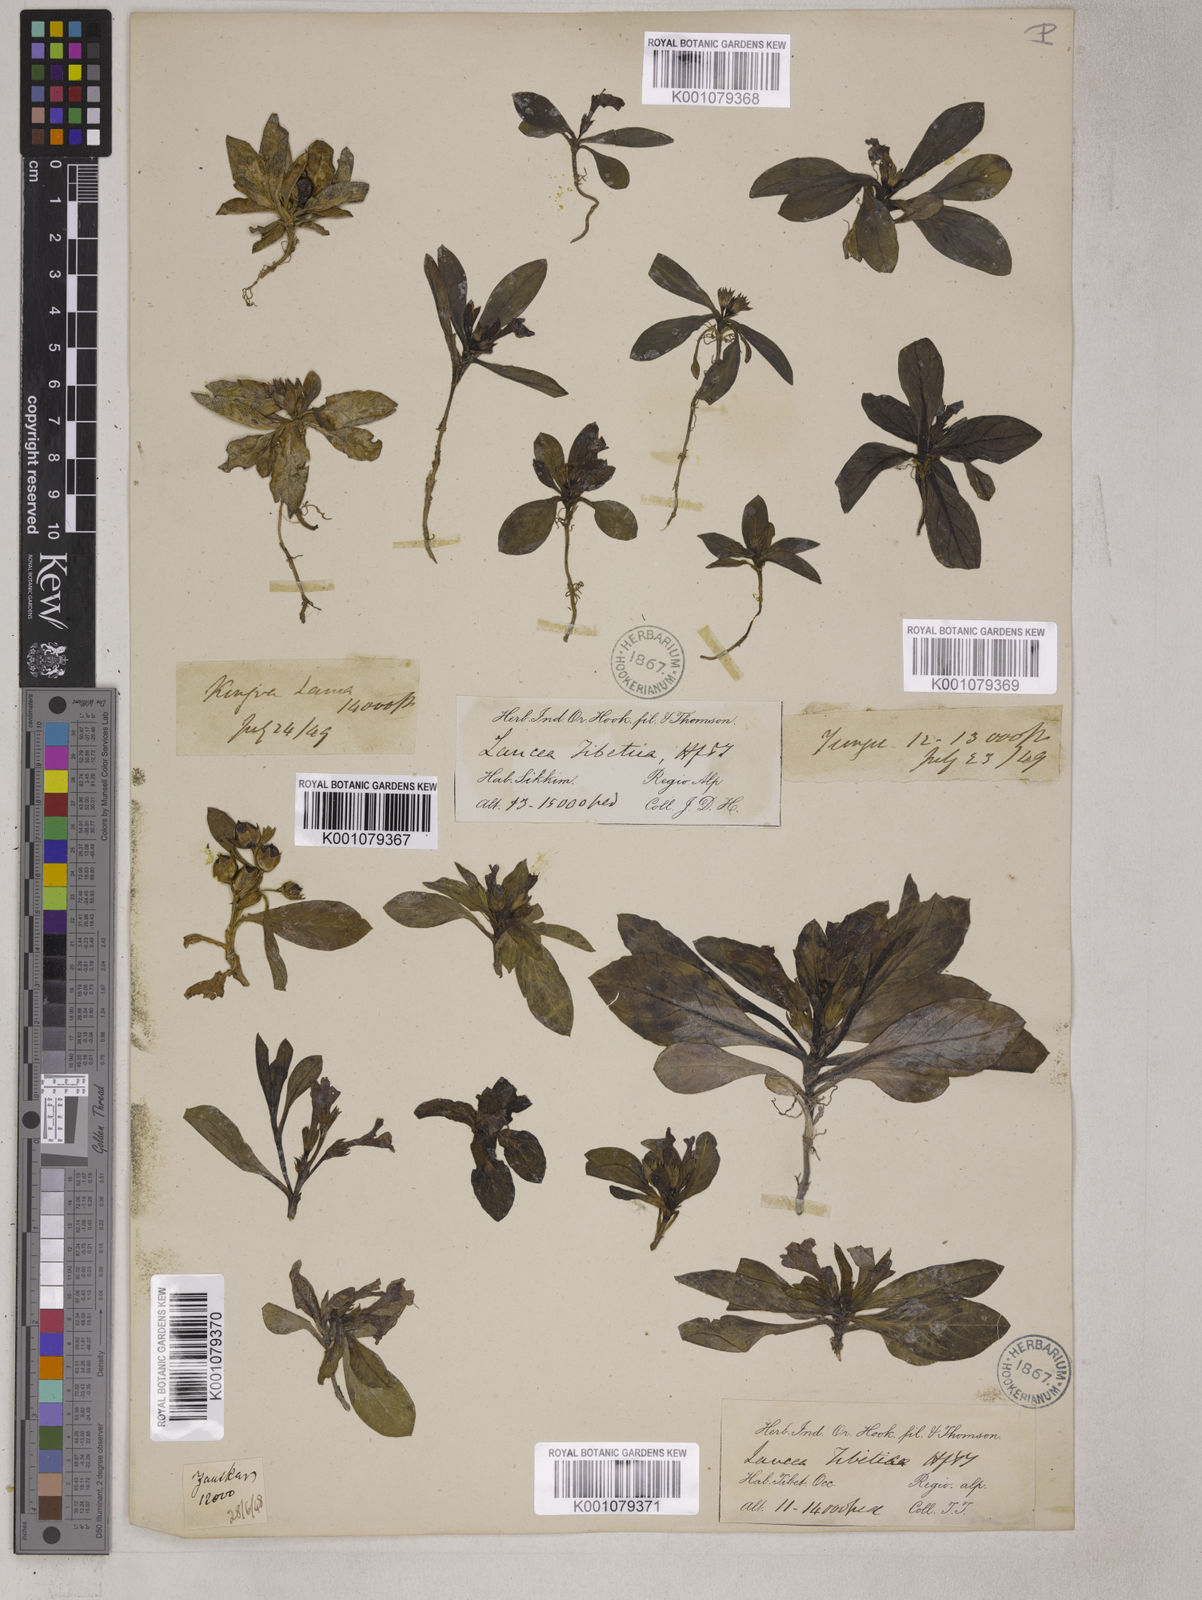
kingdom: Plantae
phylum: Tracheophyta
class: Magnoliopsida
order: Lamiales
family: Mazaceae
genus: Lancea
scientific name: Lancea tibetica
